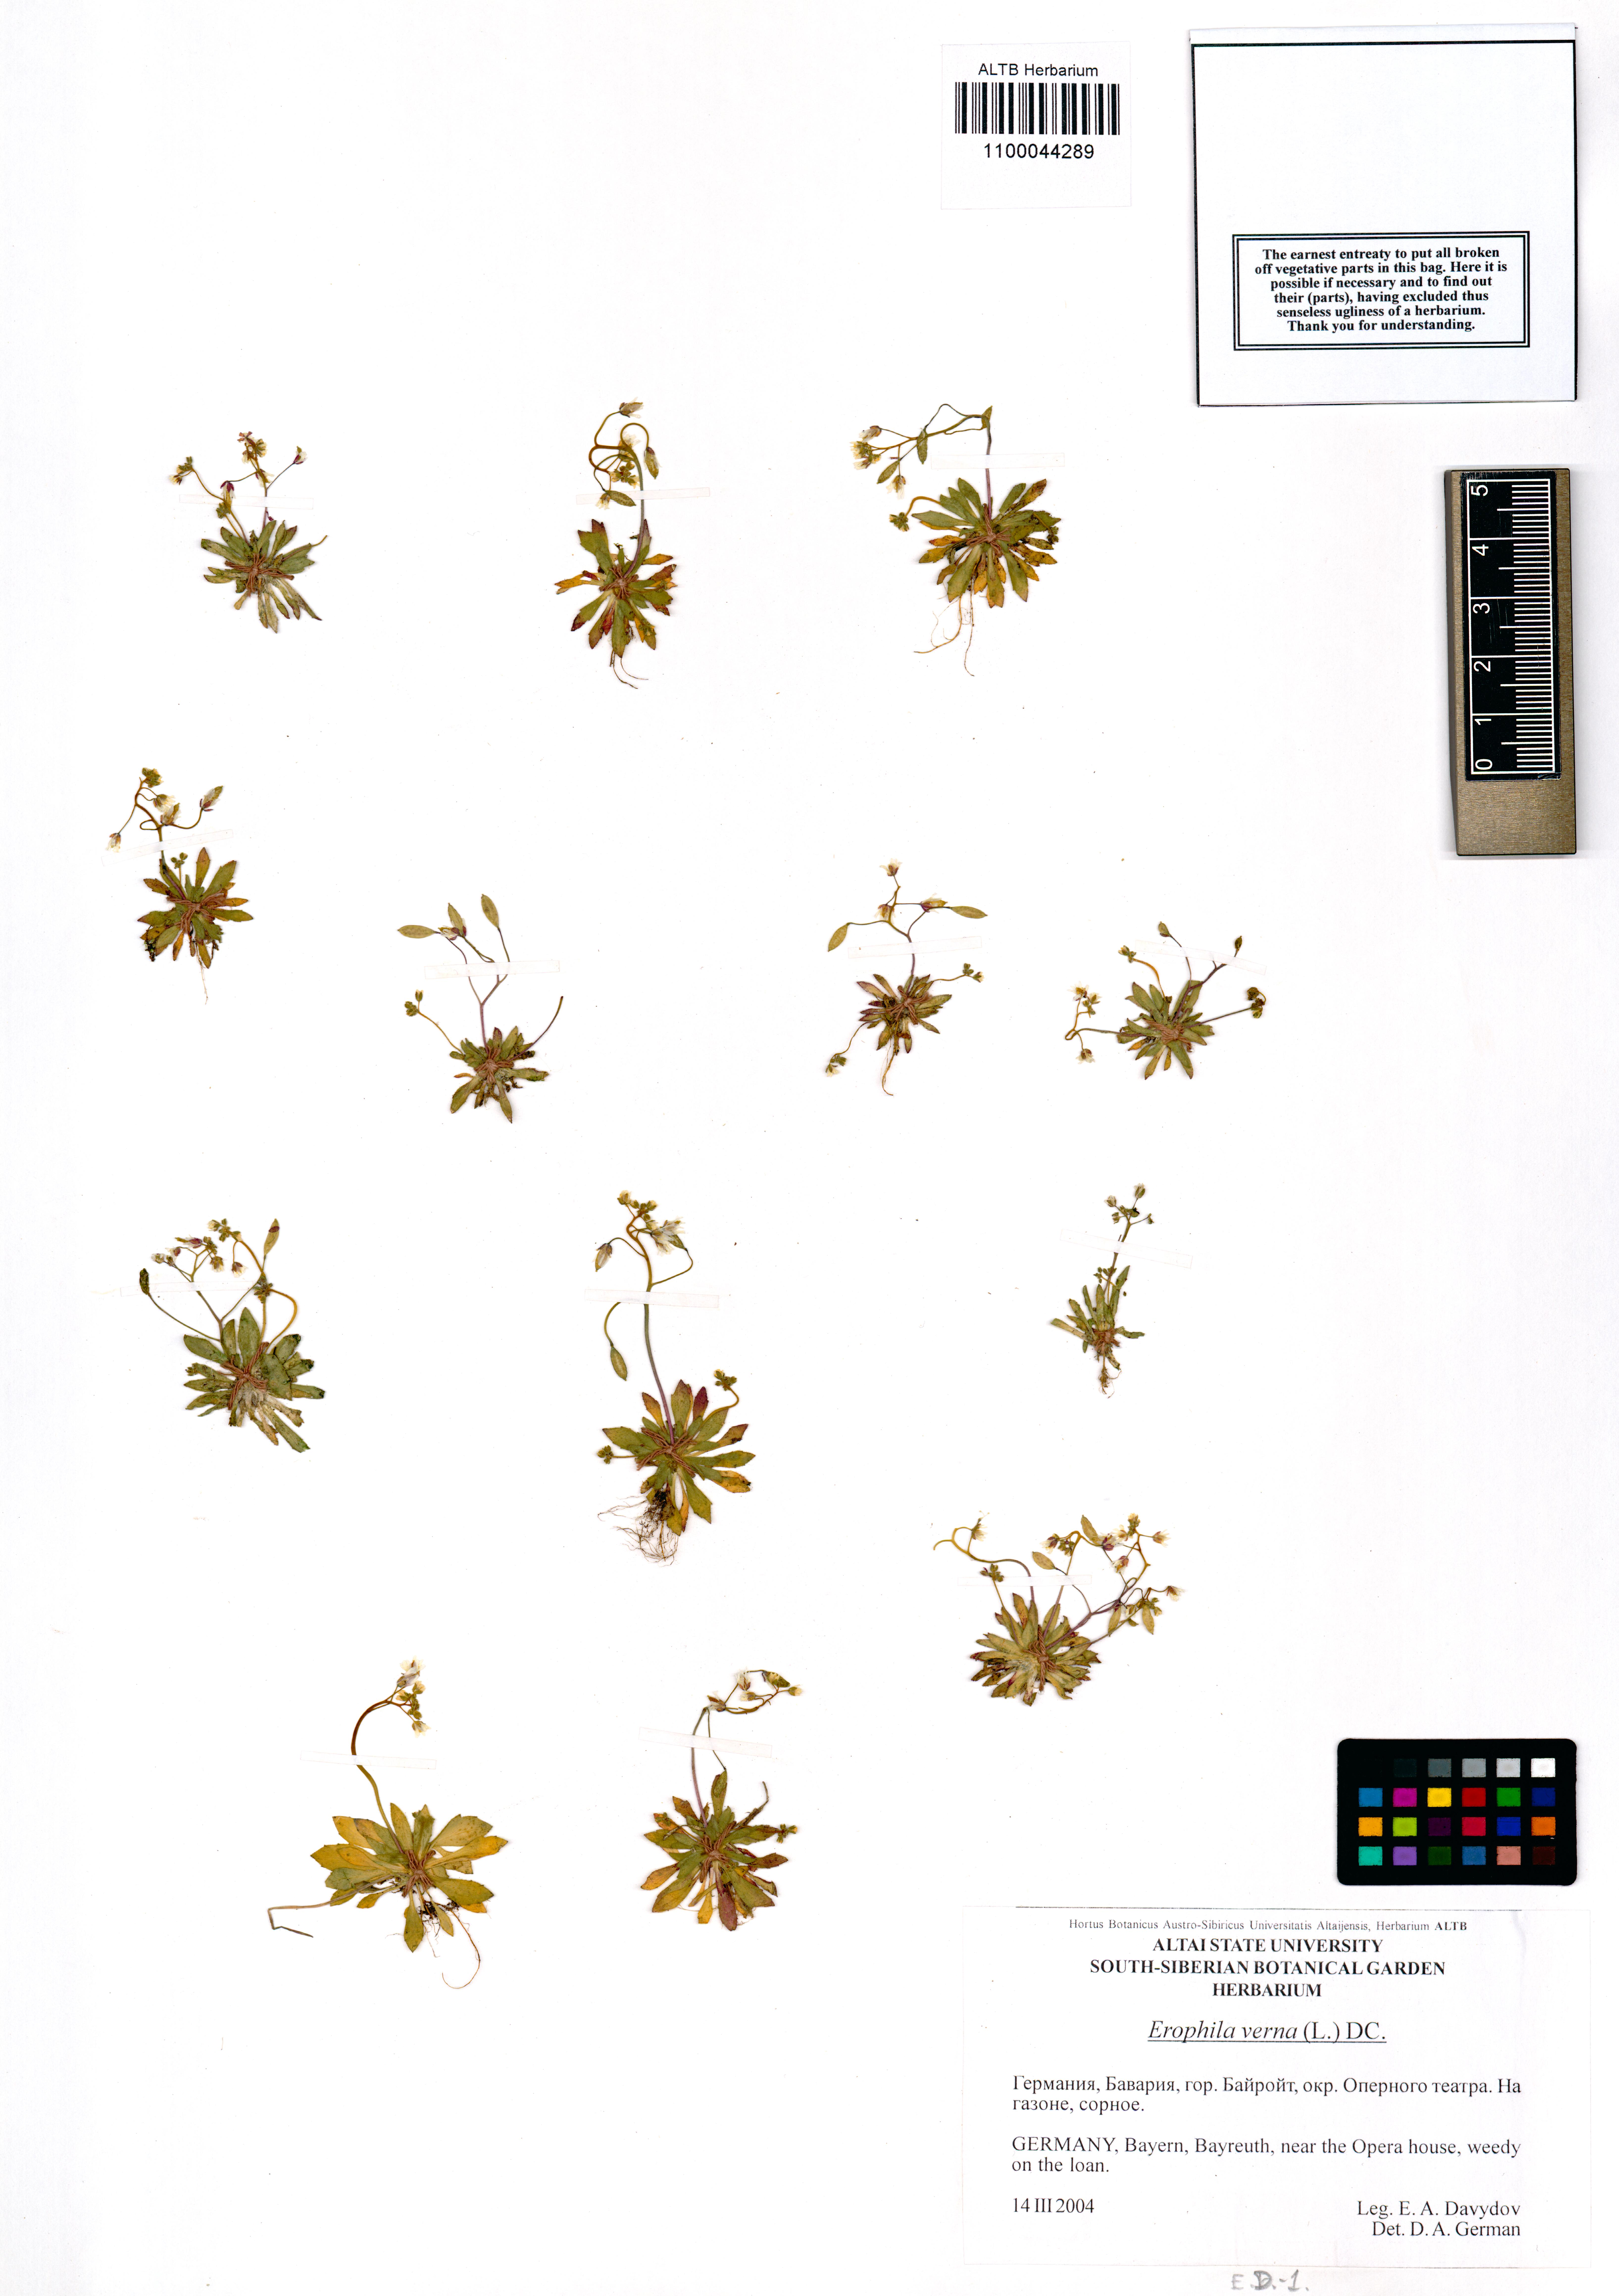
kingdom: Plantae
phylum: Tracheophyta
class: Magnoliopsida
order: Brassicales
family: Brassicaceae
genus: Draba
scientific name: Draba verna
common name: Spring draba
